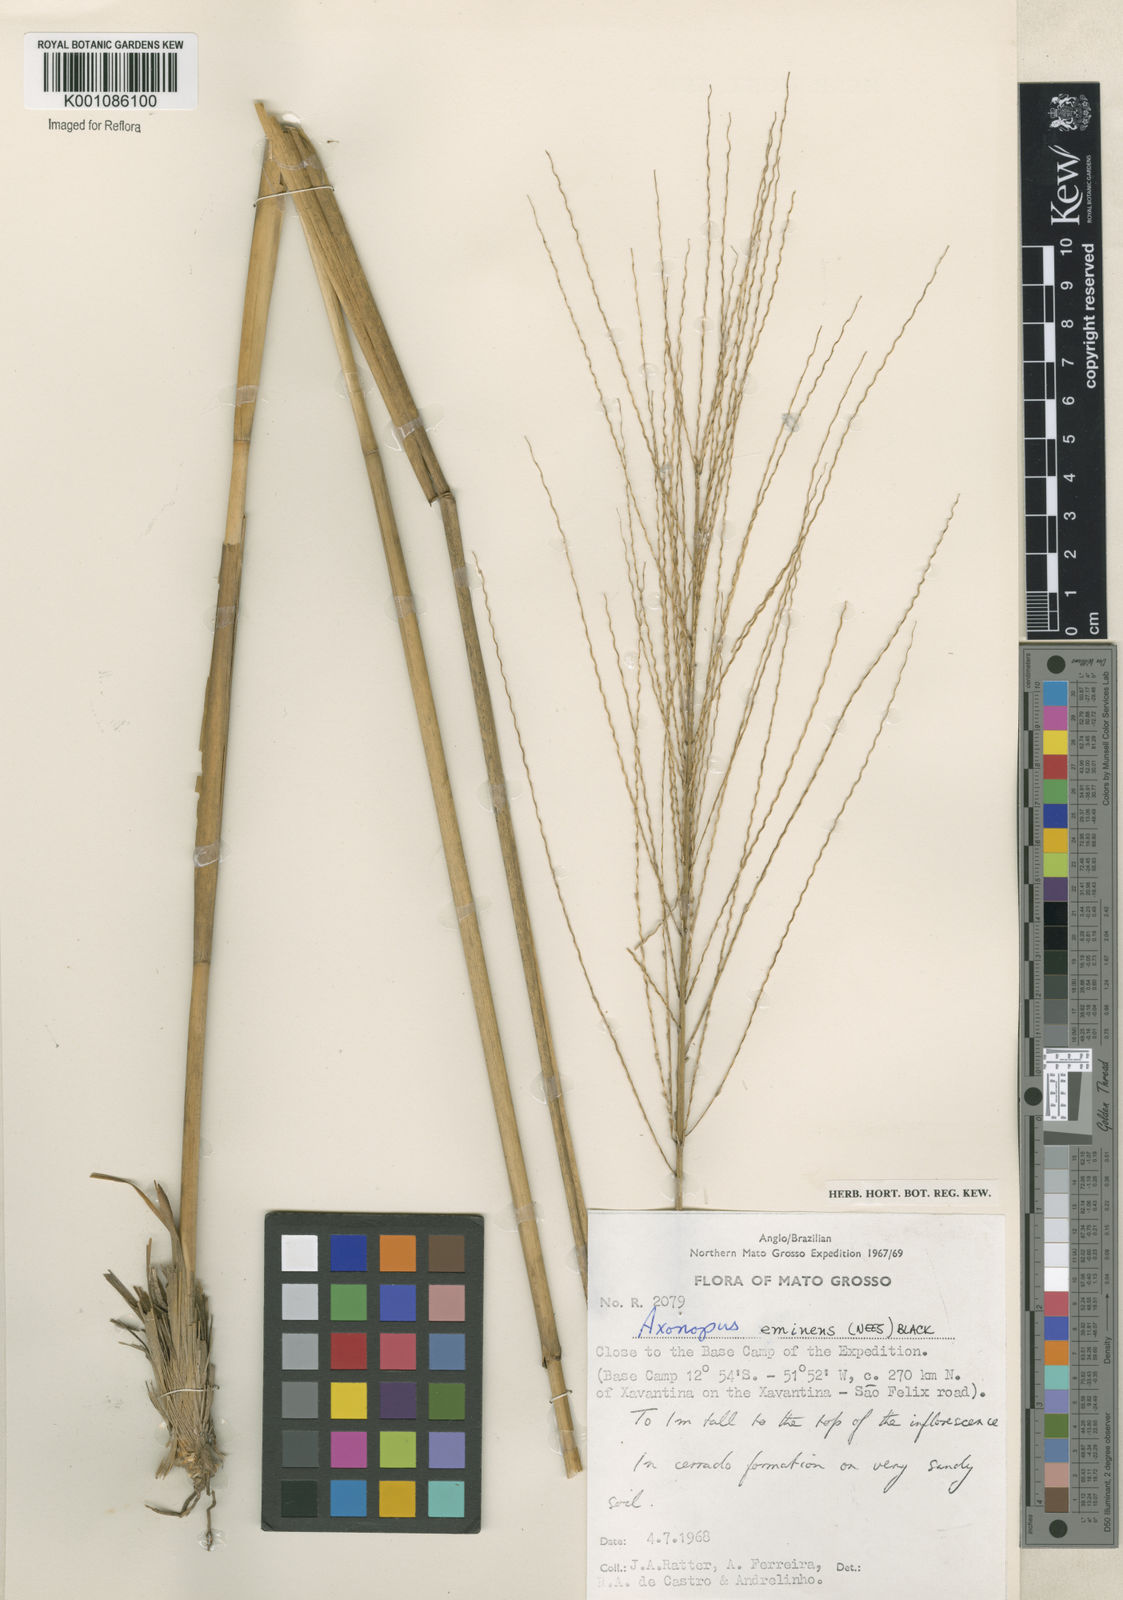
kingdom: Plantae
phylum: Tracheophyta
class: Liliopsida
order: Poales
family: Poaceae
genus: Axonopus
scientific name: Axonopus eminens
